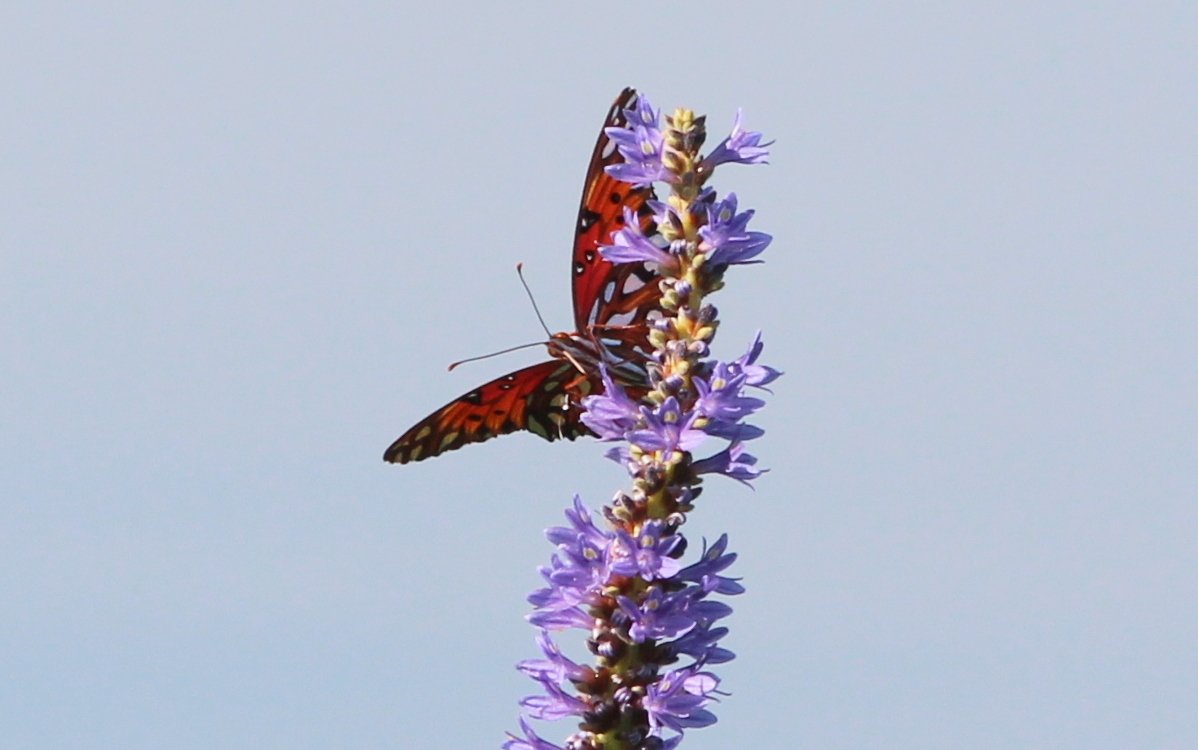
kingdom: Animalia
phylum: Arthropoda
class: Insecta
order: Lepidoptera
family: Nymphalidae
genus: Dione
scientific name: Dione vanillae
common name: Gulf Fritillary
